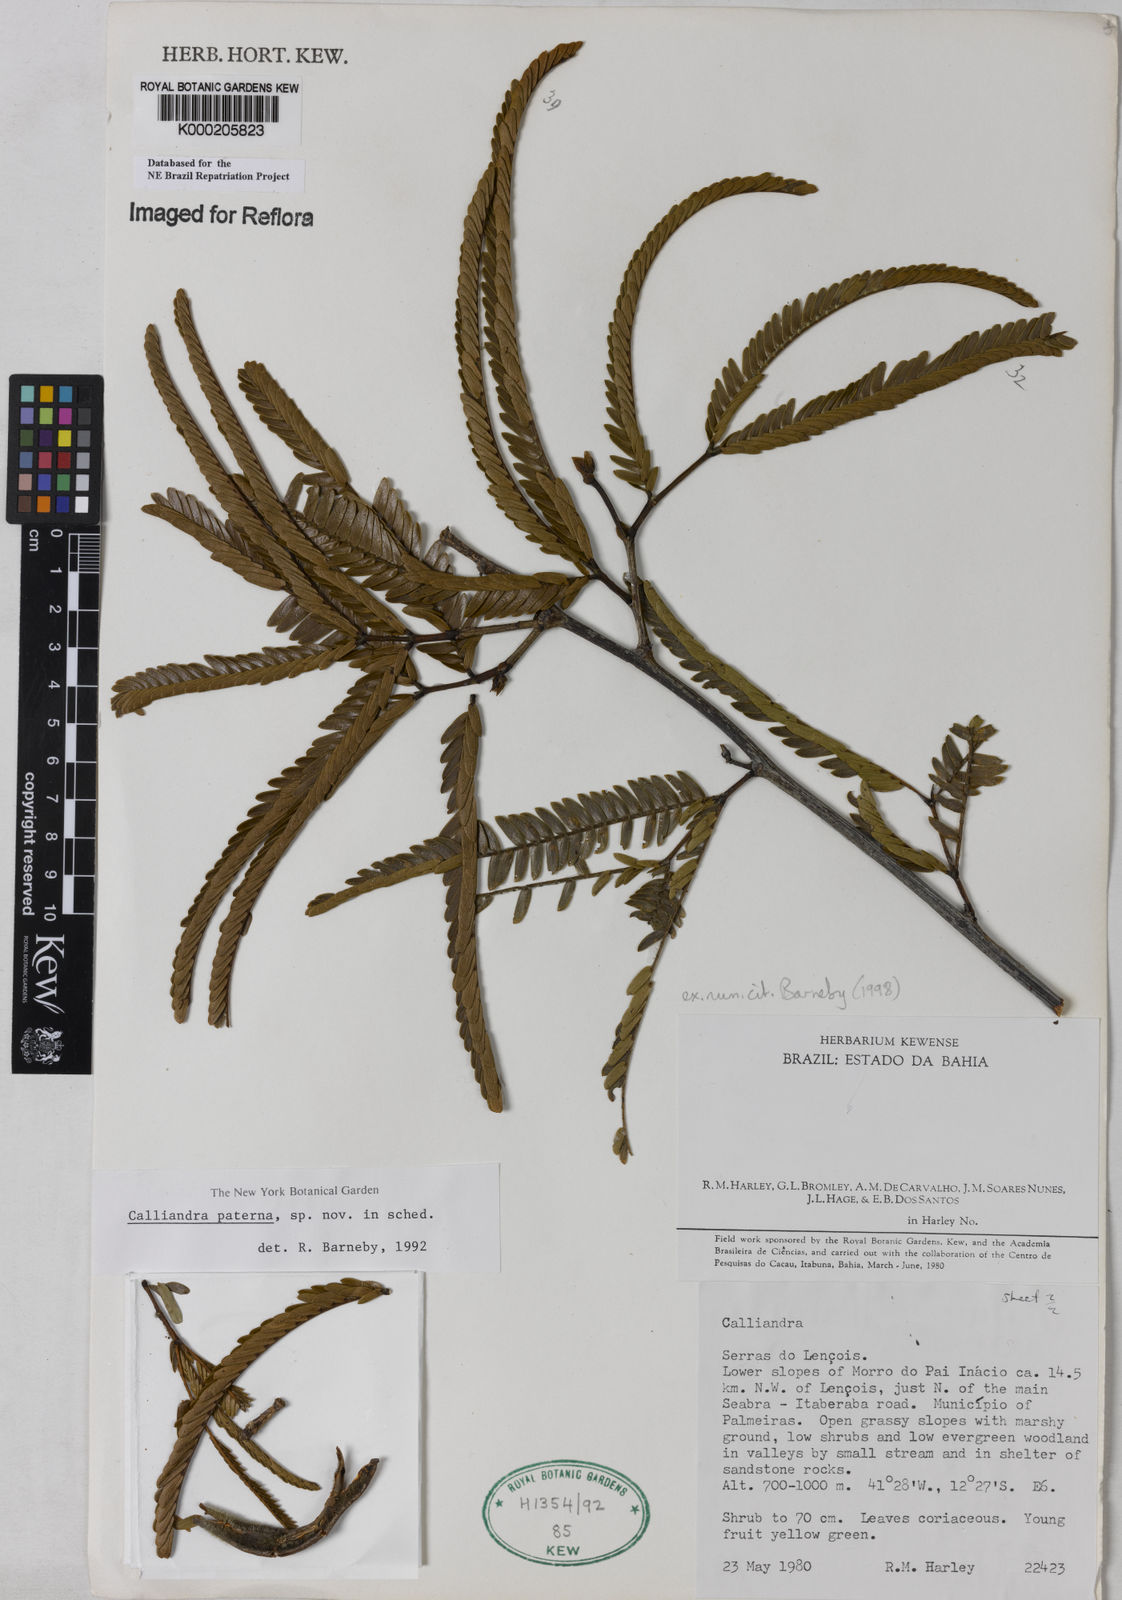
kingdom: Plantae
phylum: Tracheophyta
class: Magnoliopsida
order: Fabales
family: Fabaceae
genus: Calliandra
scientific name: Calliandra paterna
